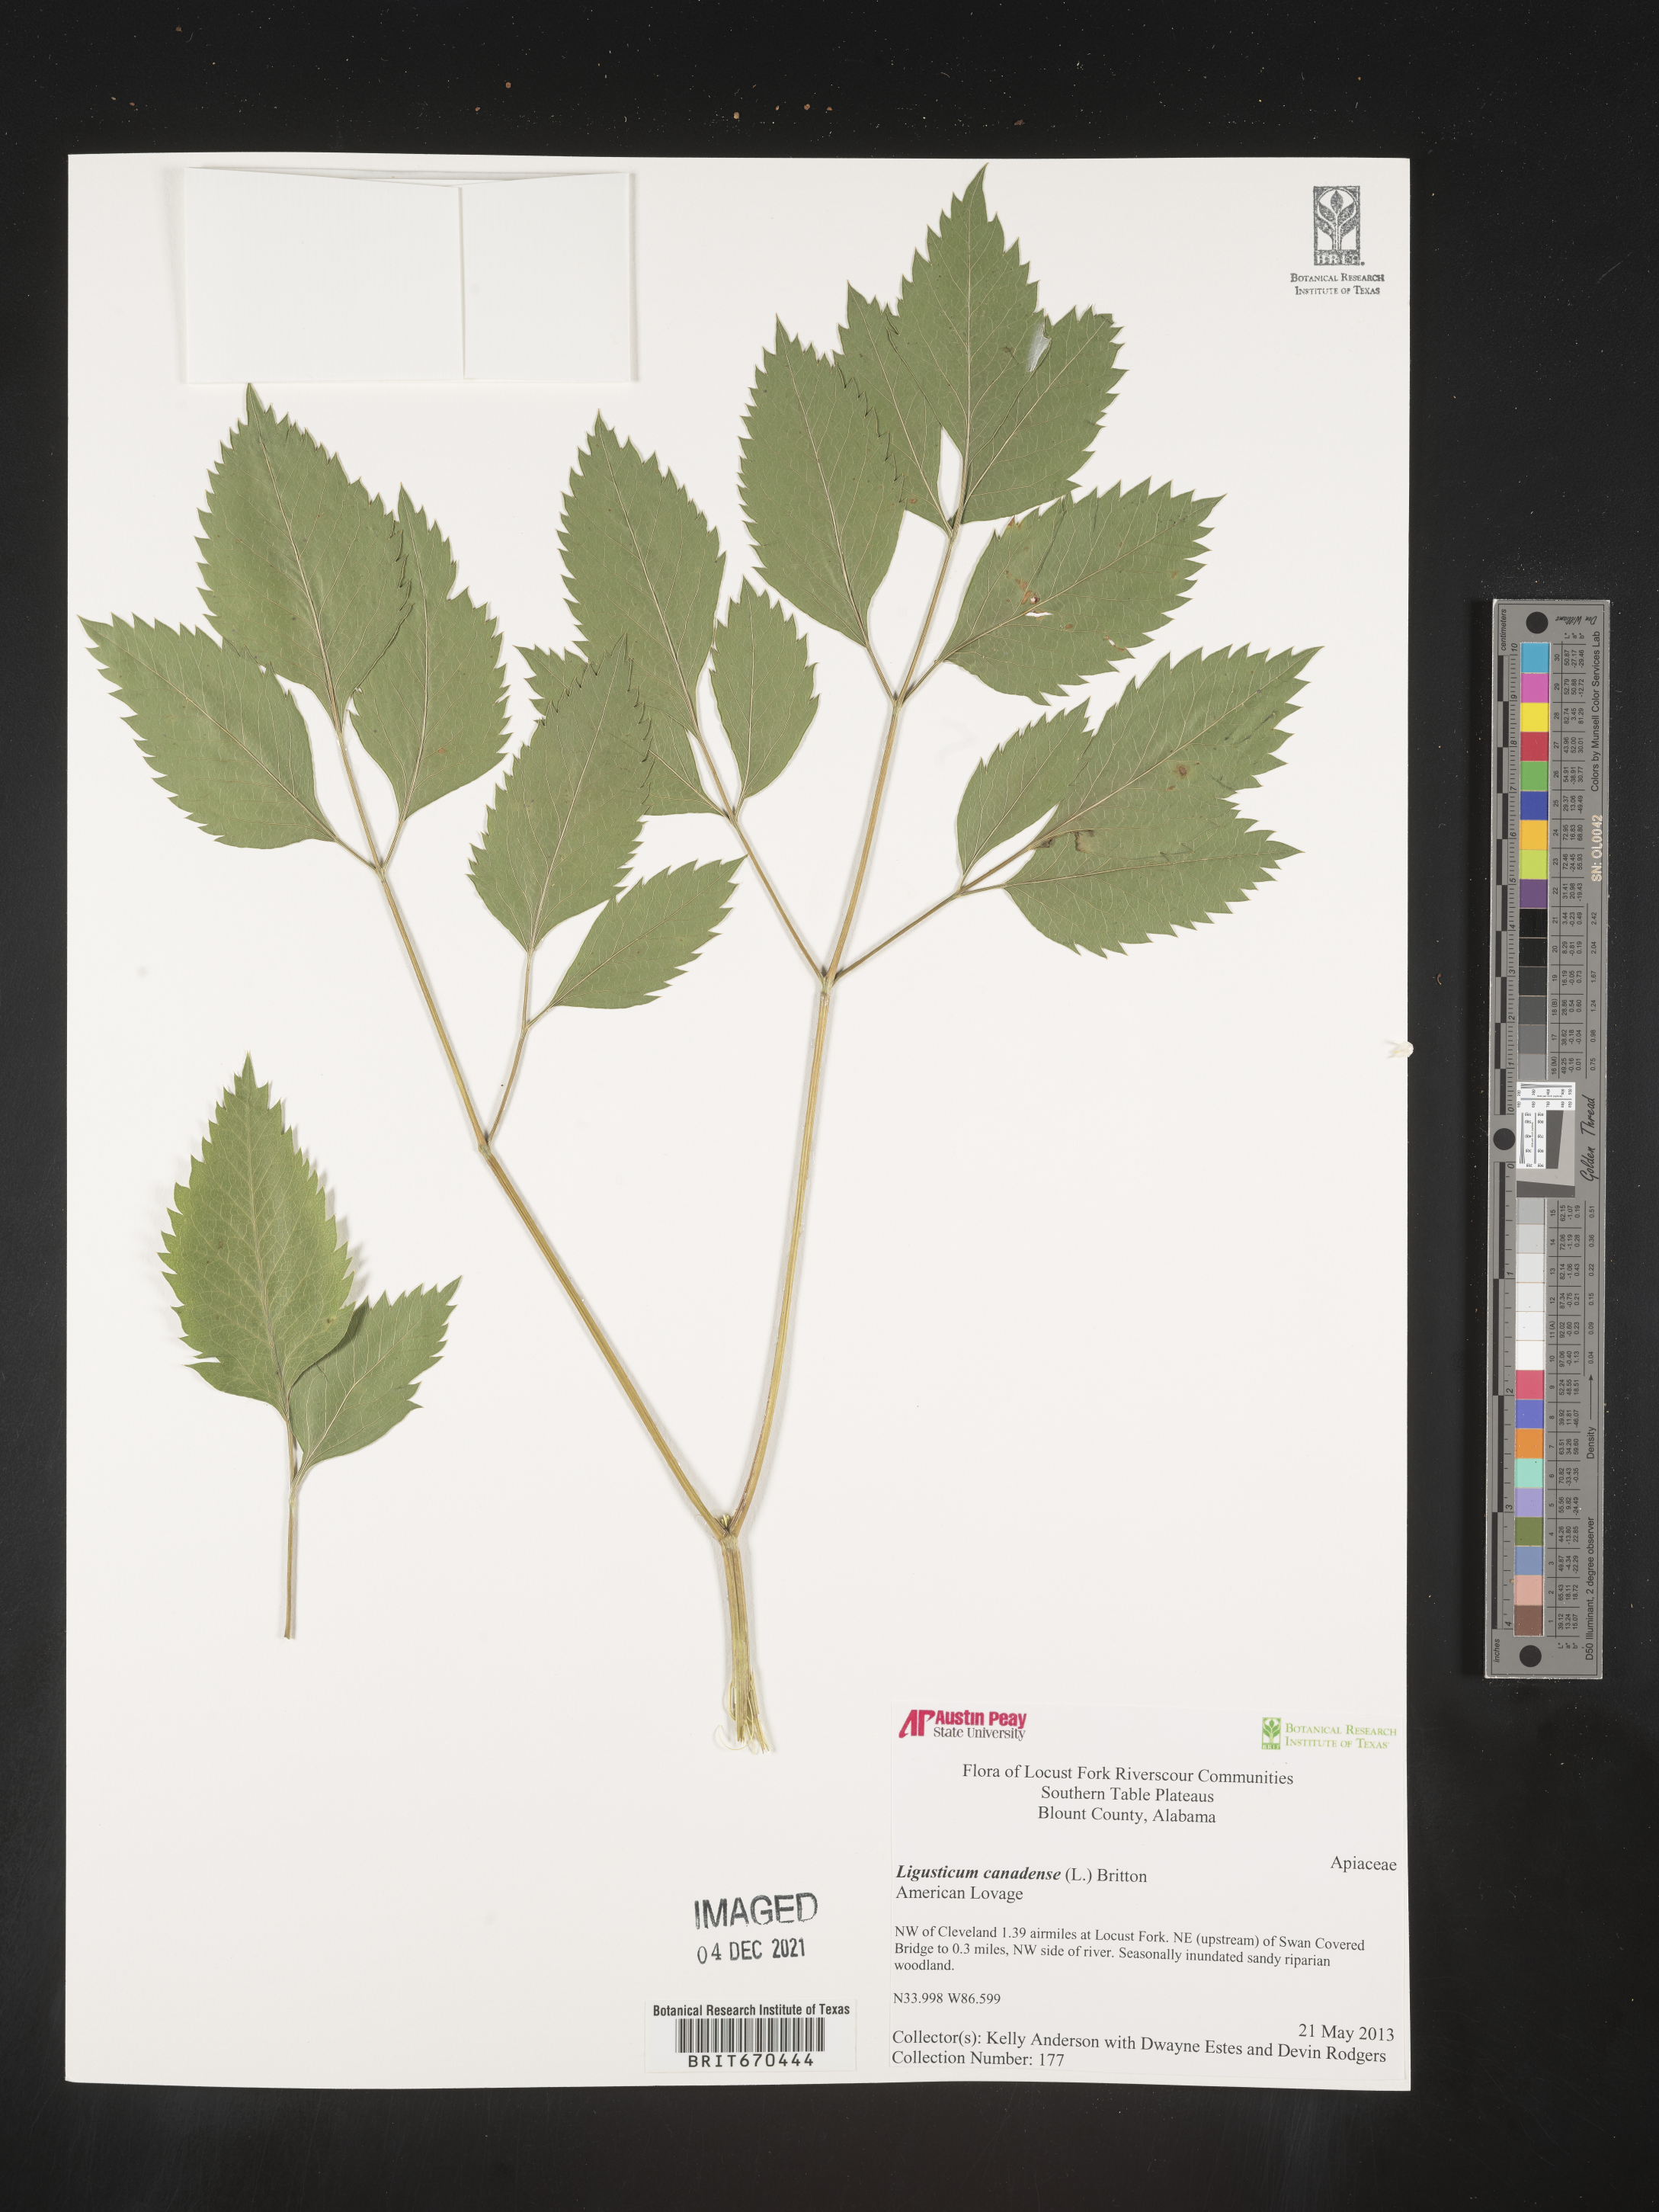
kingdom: Plantae
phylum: Tracheophyta
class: Magnoliopsida
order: Apiales
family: Apiaceae
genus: Ligusticum
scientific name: Ligusticum
